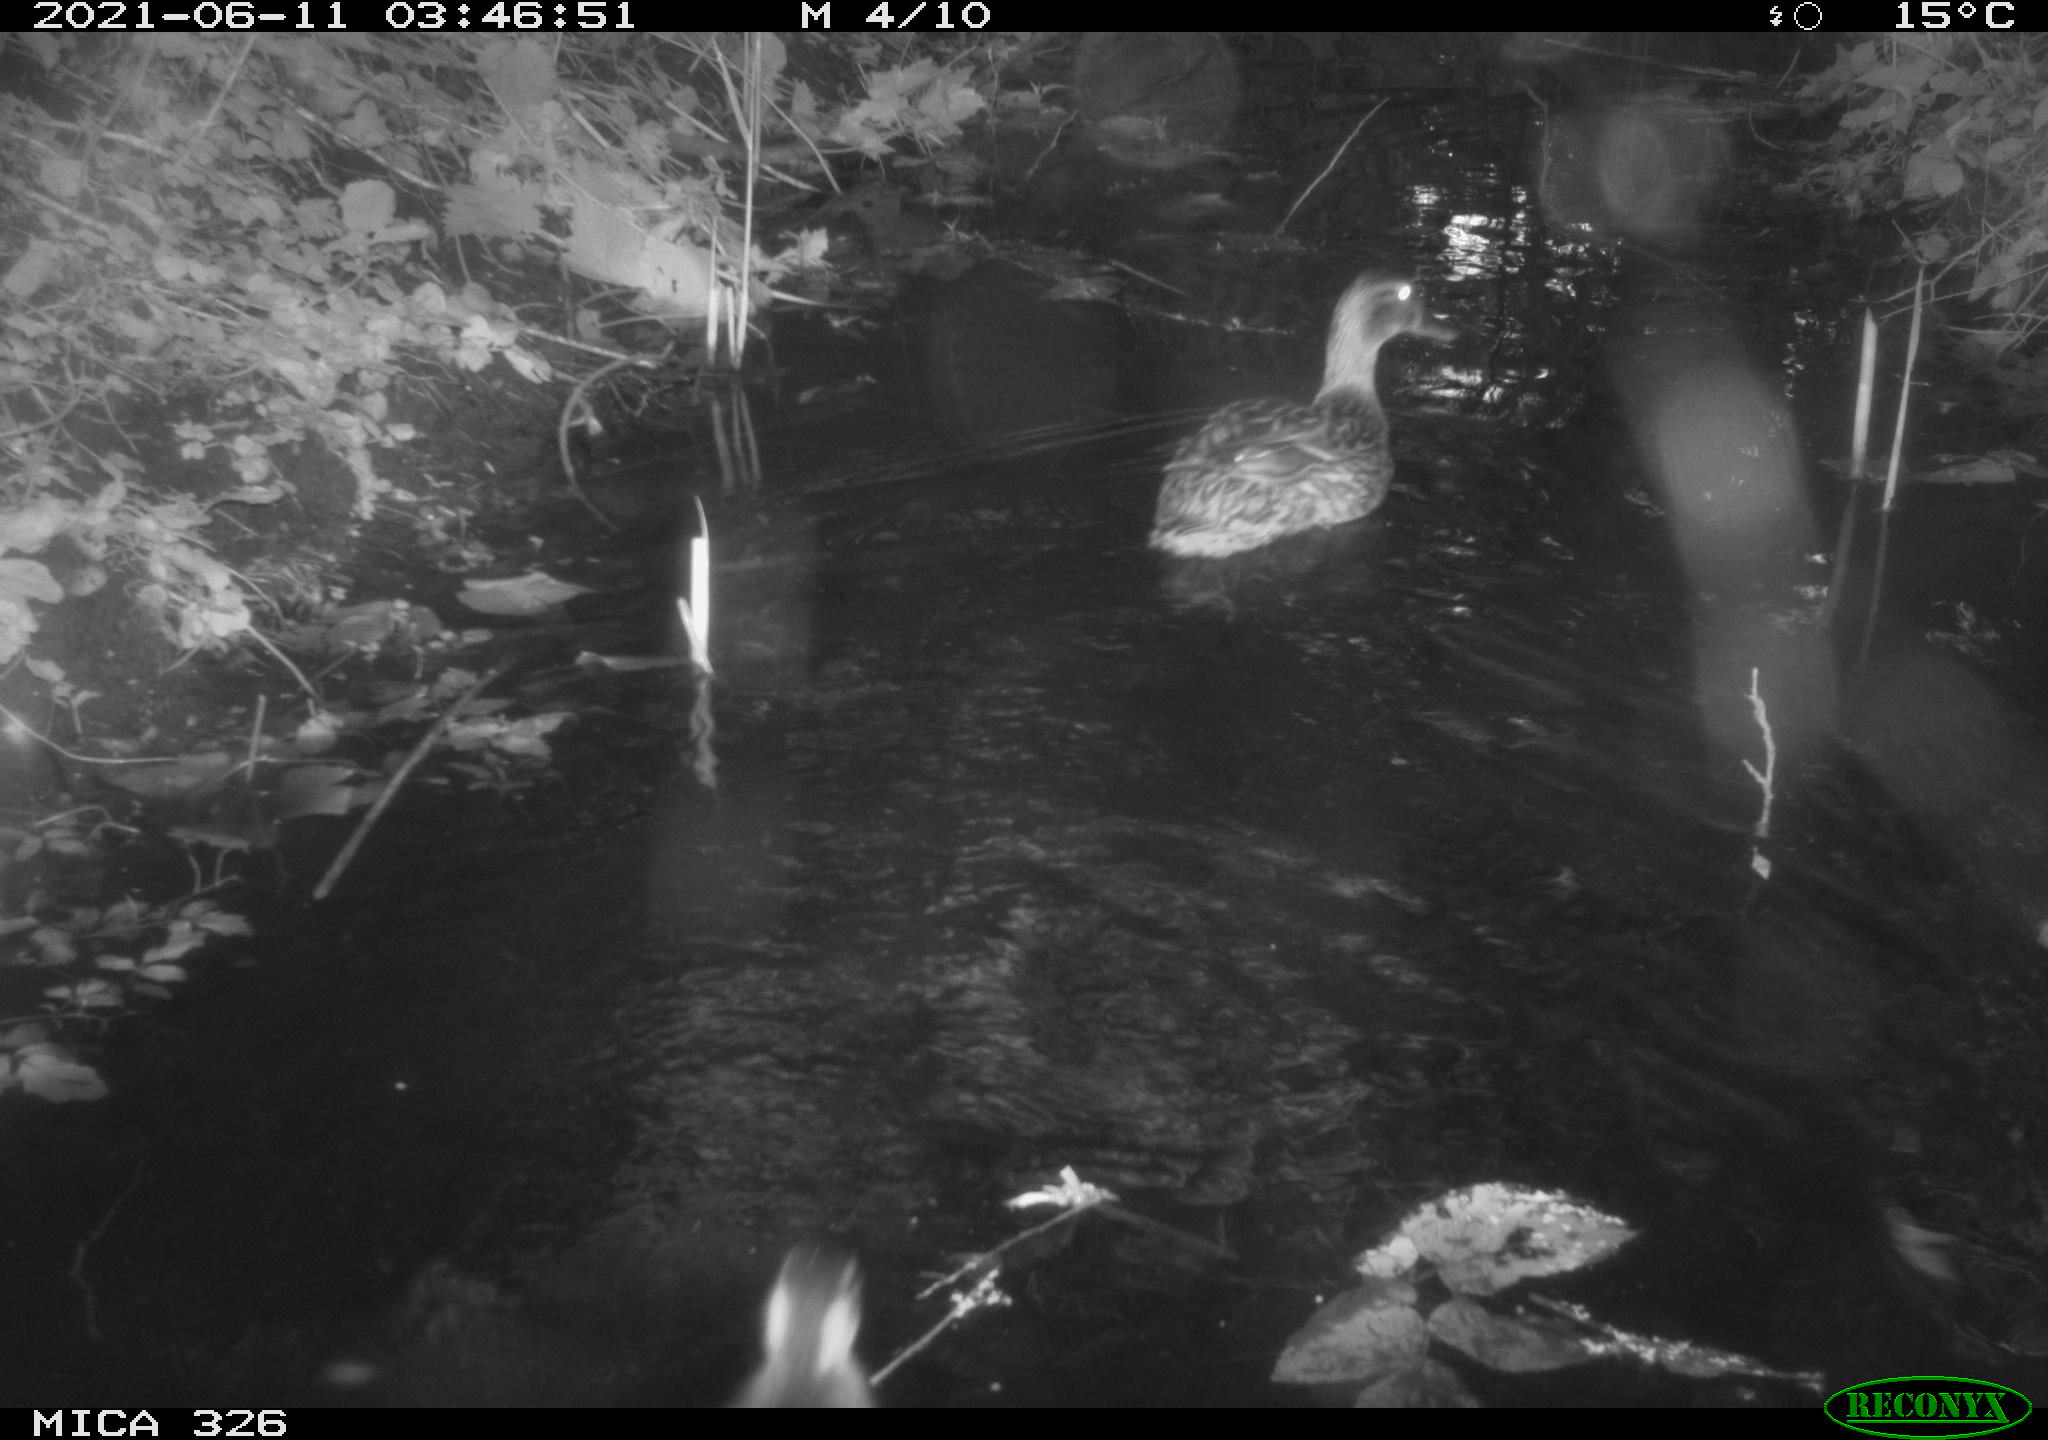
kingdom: Animalia
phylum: Chordata
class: Aves
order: Anseriformes
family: Anatidae
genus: Anas
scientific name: Anas platyrhynchos
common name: Mallard
